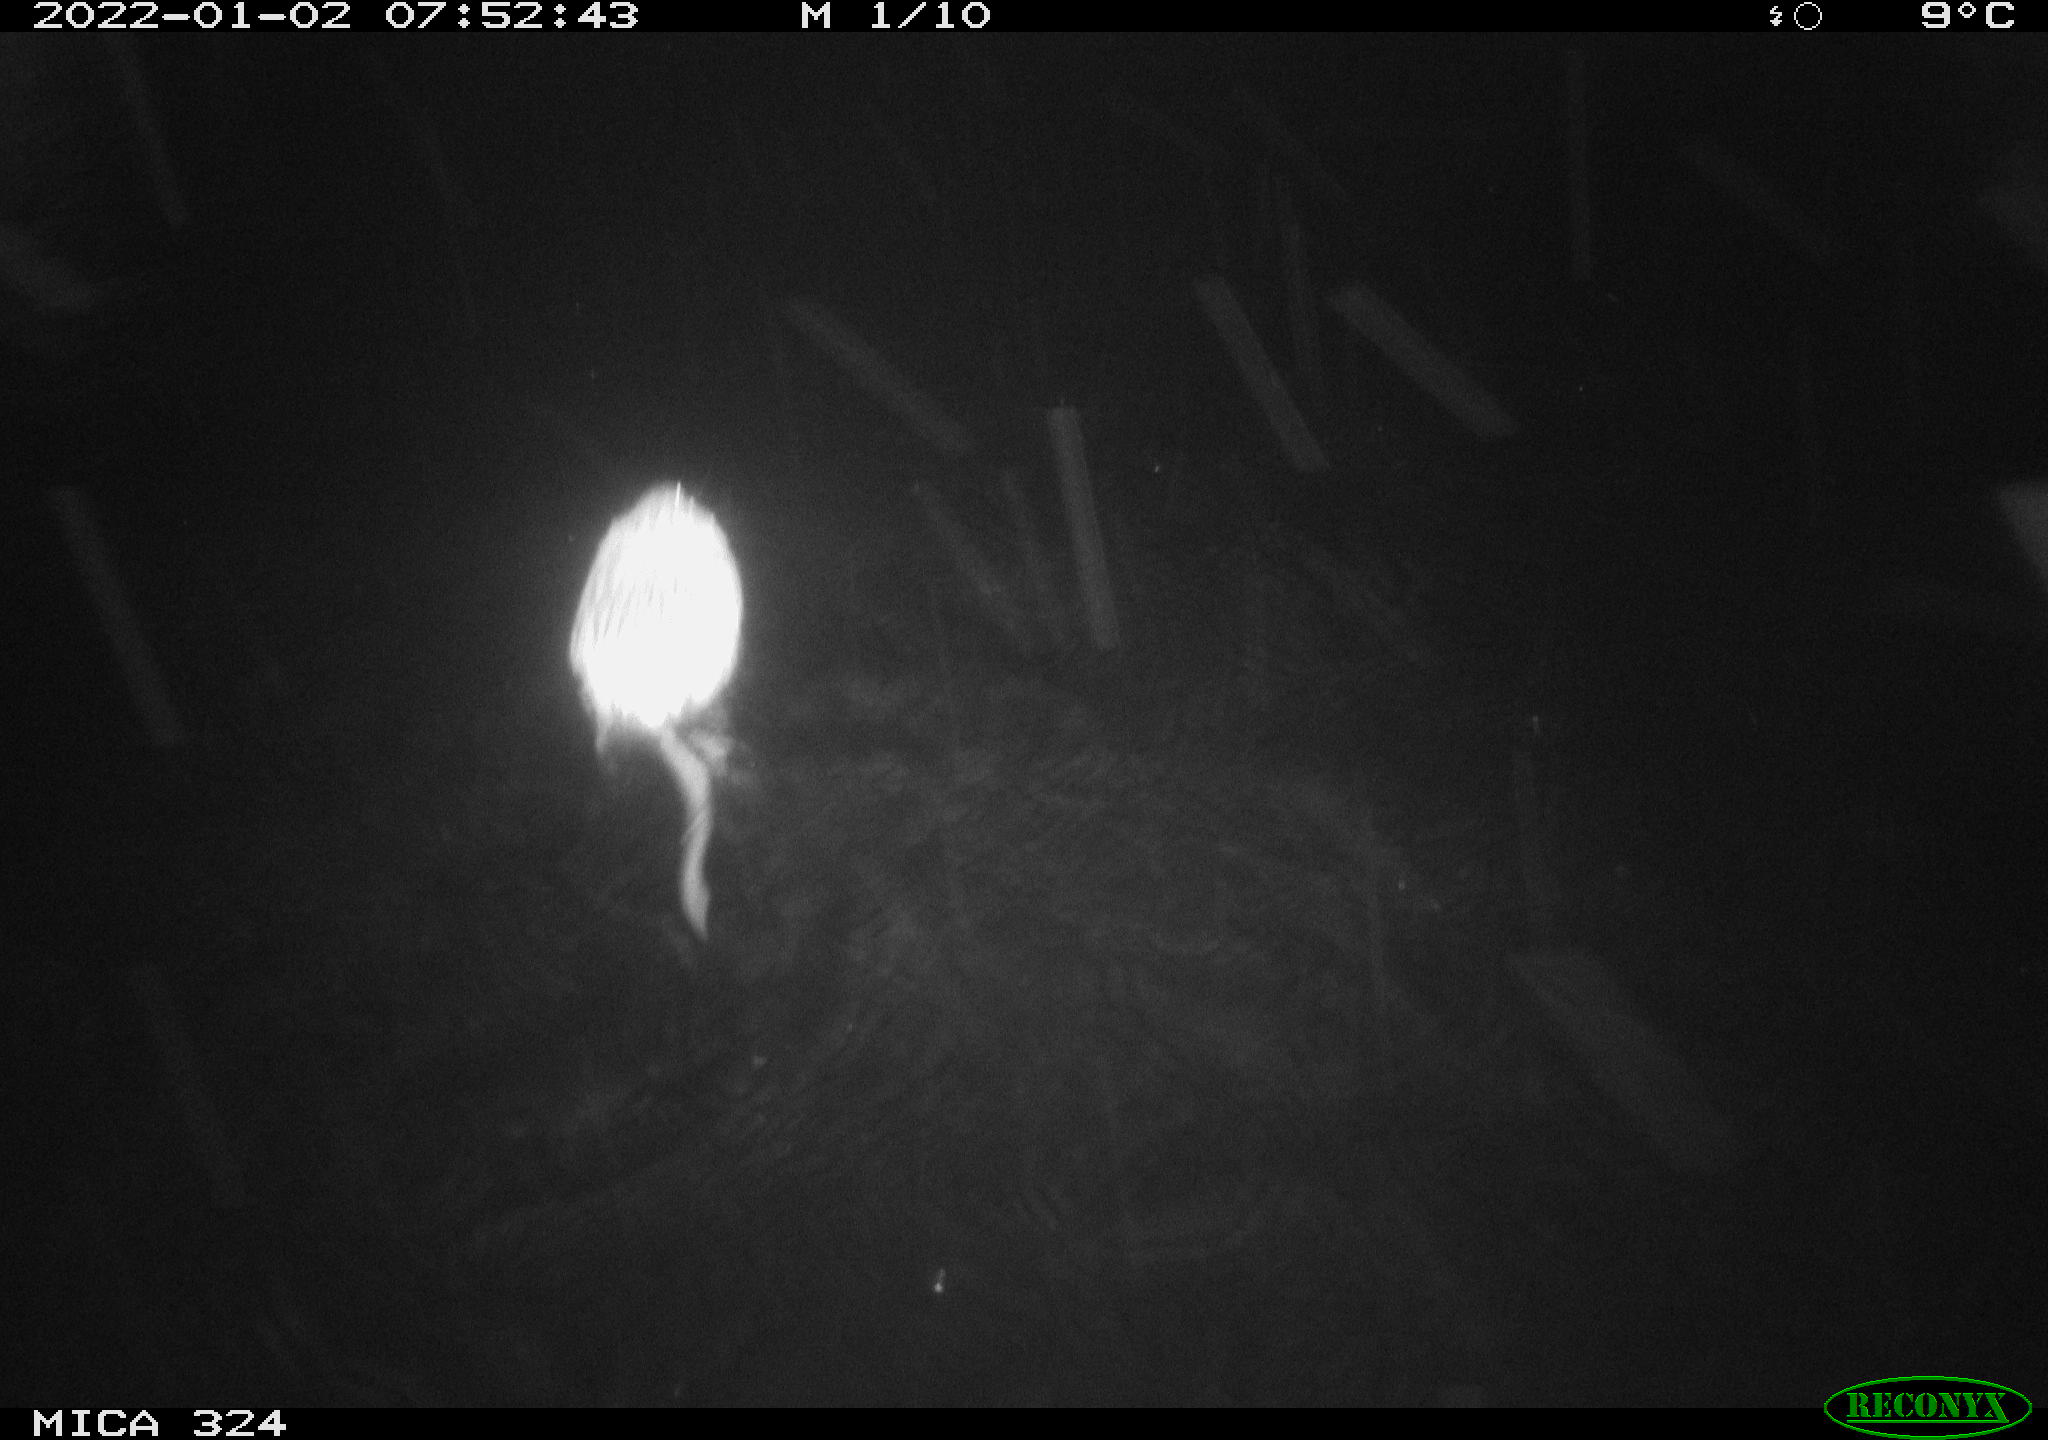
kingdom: Animalia
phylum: Chordata
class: Mammalia
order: Rodentia
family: Cricetidae
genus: Ondatra
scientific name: Ondatra zibethicus
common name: Muskrat
